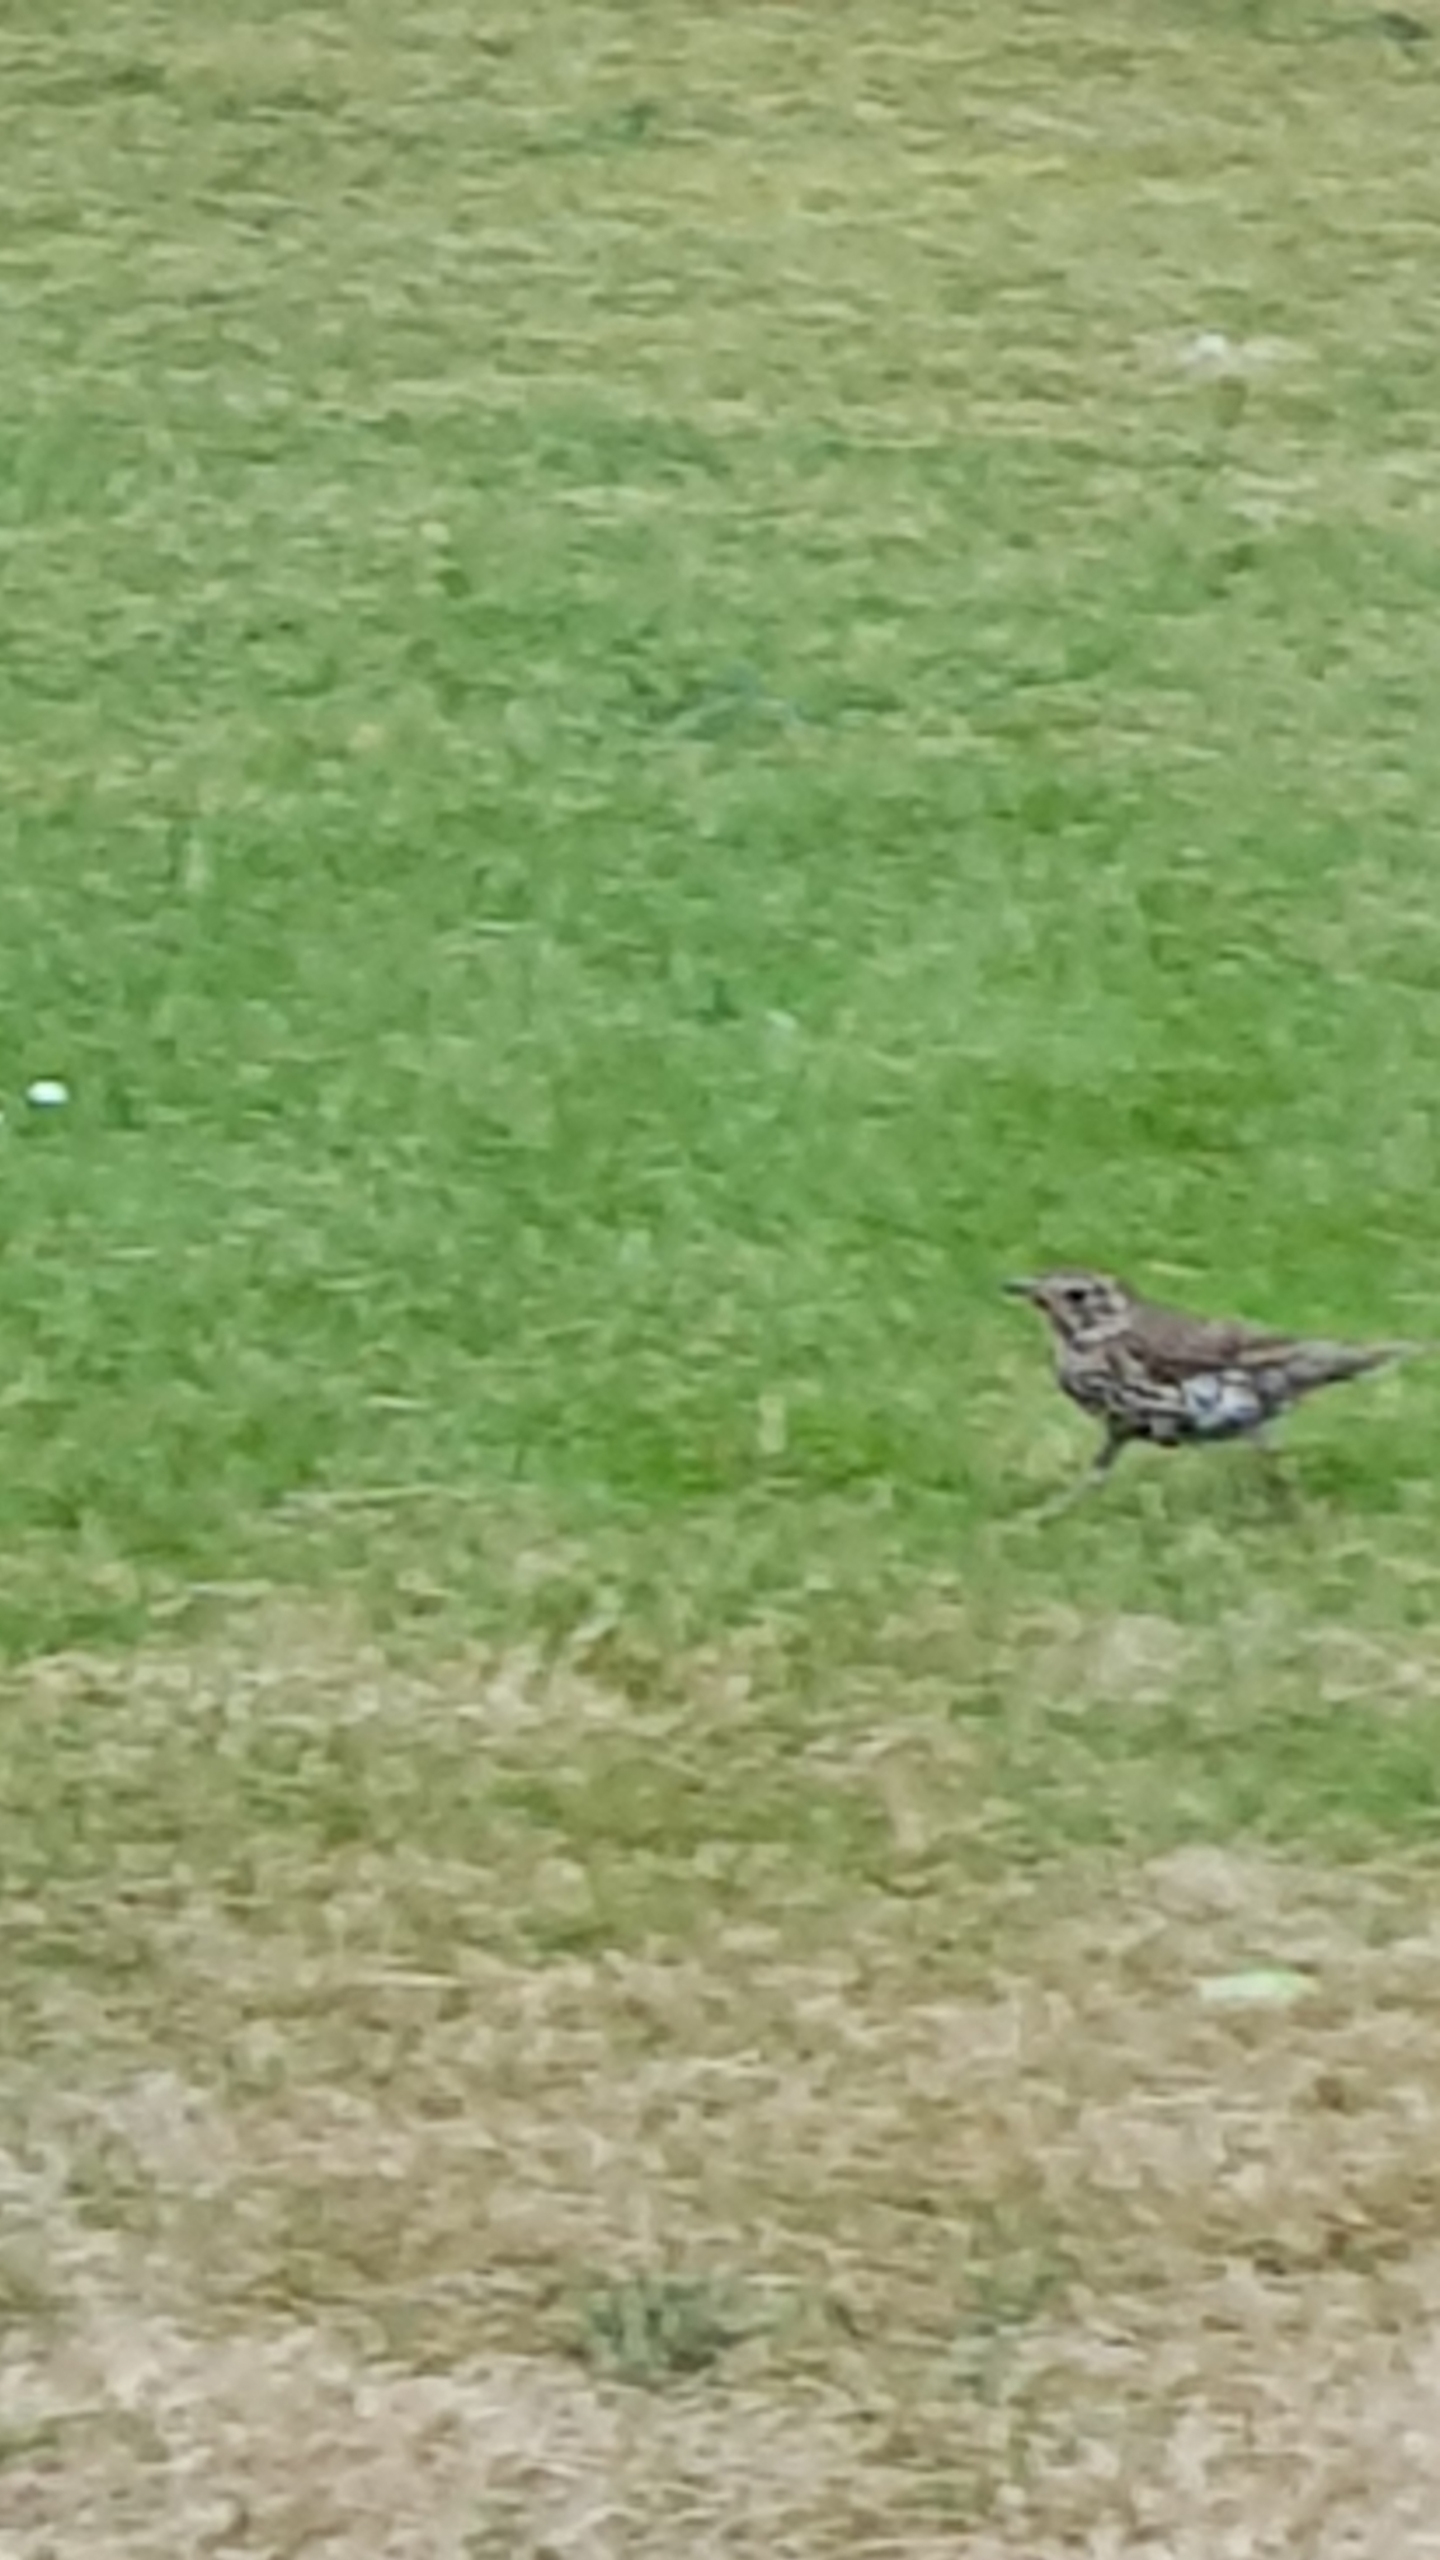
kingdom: Animalia
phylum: Chordata
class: Aves
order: Passeriformes
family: Turdidae
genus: Turdus
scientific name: Turdus viscivorus
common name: Misteldrossel
